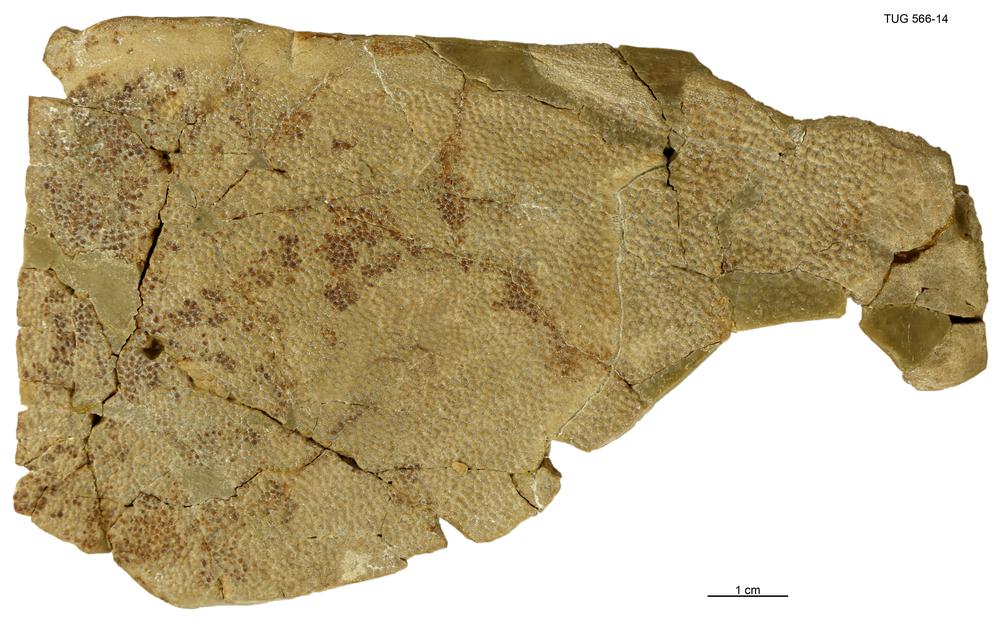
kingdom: Animalia
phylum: Chordata
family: Homostiidae
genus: Homostius
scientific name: Homostius
